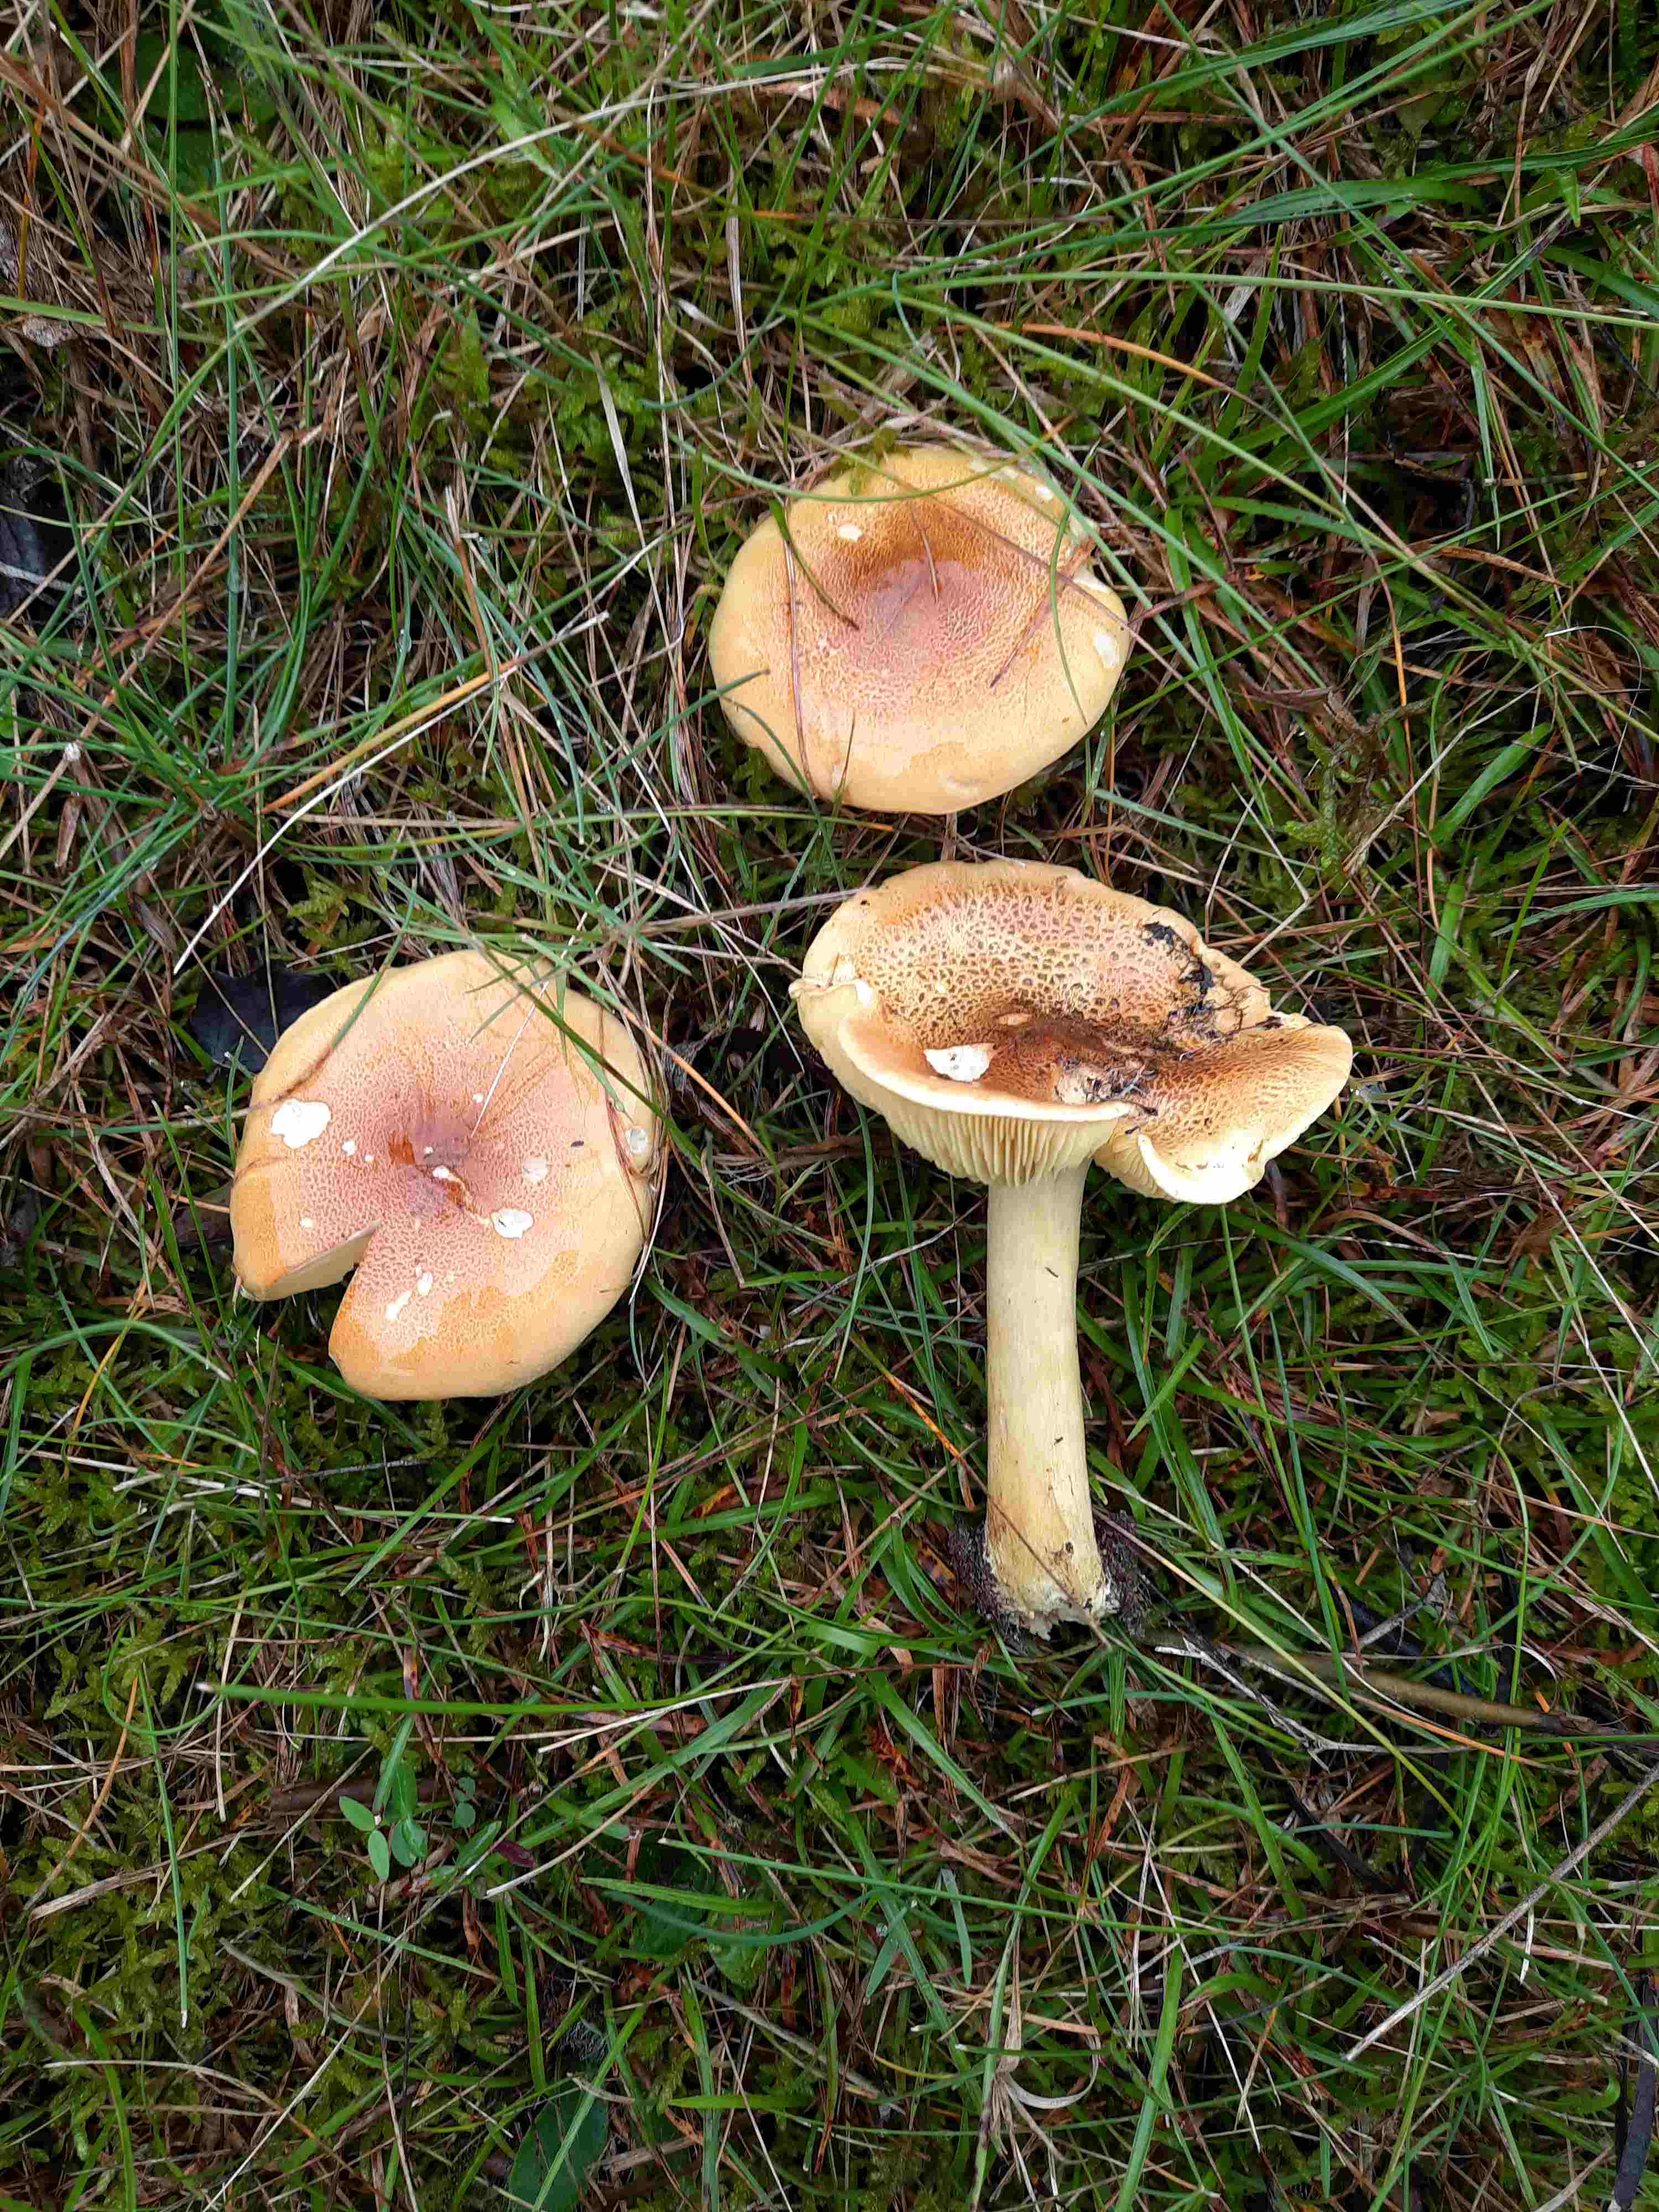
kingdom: Fungi
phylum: Basidiomycota
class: Agaricomycetes
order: Agaricales
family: Tricholomataceae
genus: Tricholoma
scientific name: Tricholoma frondosae
